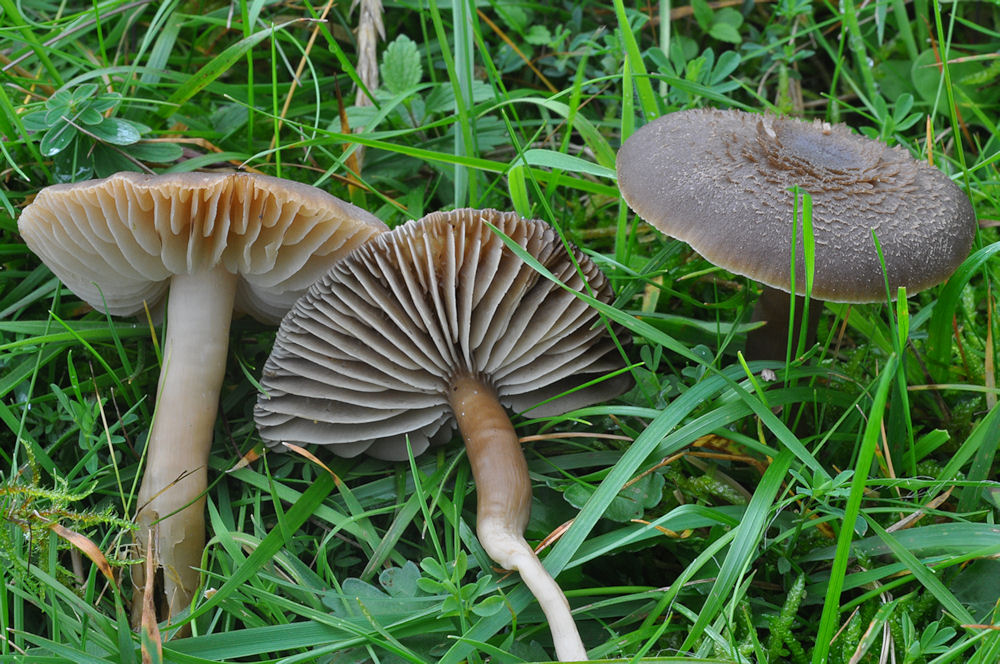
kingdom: Fungi
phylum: Basidiomycota
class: Agaricomycetes
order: Agaricales
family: Hygrophoraceae
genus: Neohygrocybe
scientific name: Neohygrocybe nitrata
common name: stinkende vokshat
